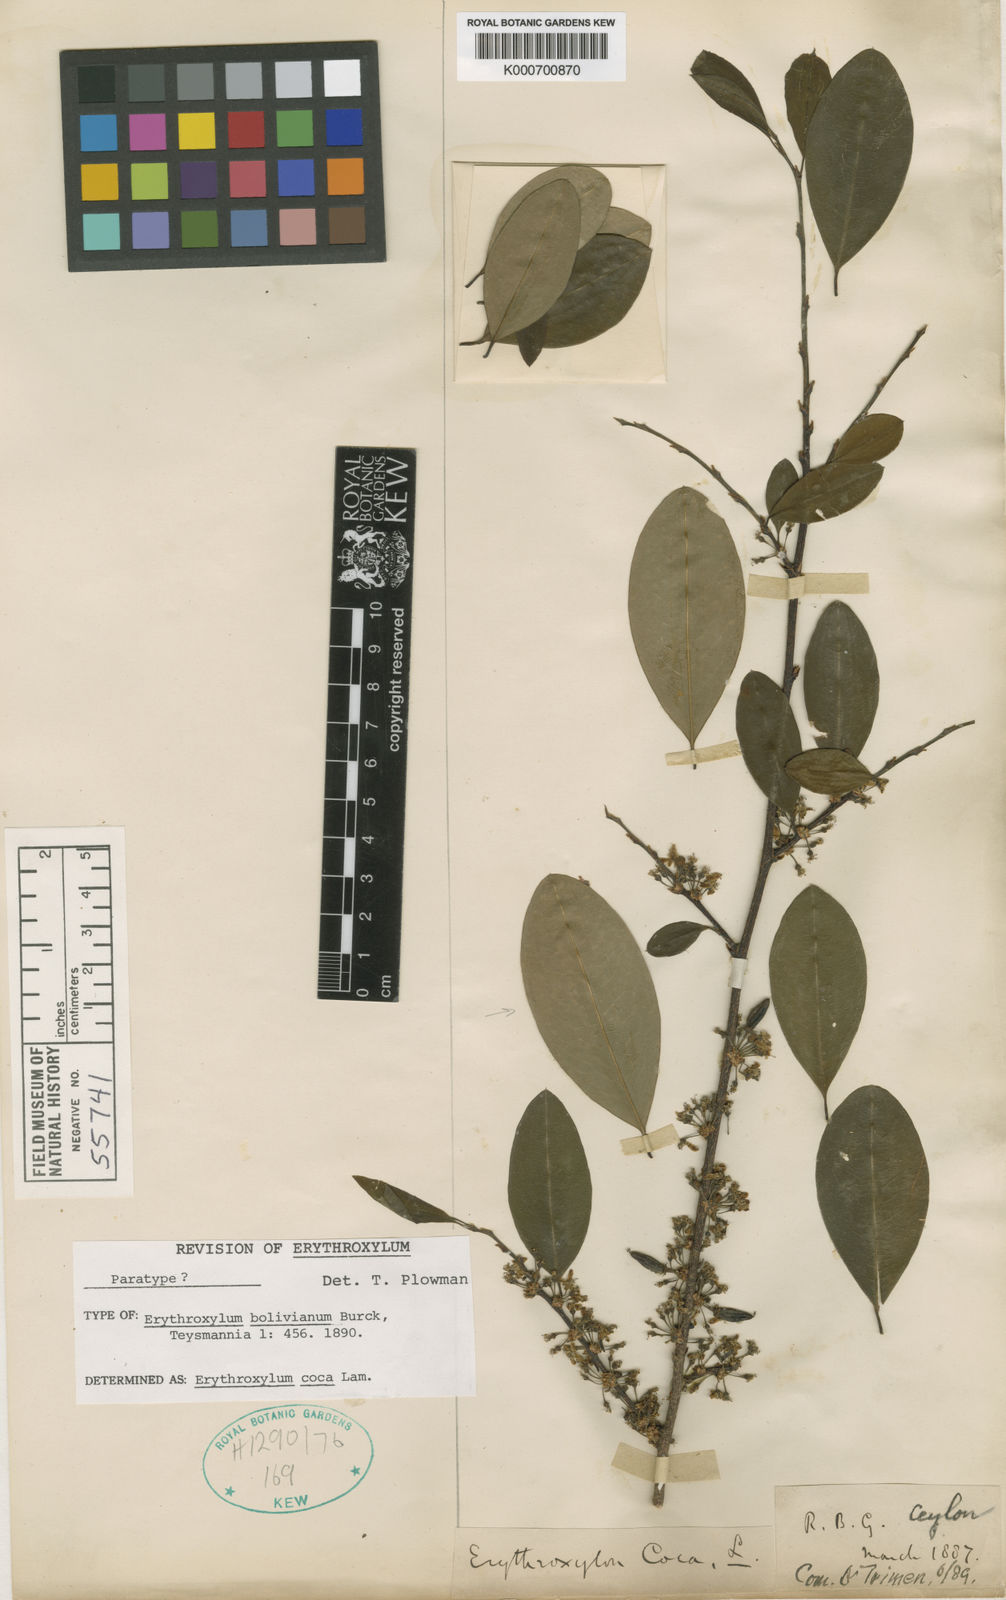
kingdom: Plantae
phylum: Tracheophyta
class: Magnoliopsida
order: Malpighiales
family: Erythroxylaceae
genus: Erythroxylum
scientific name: Erythroxylum coca
